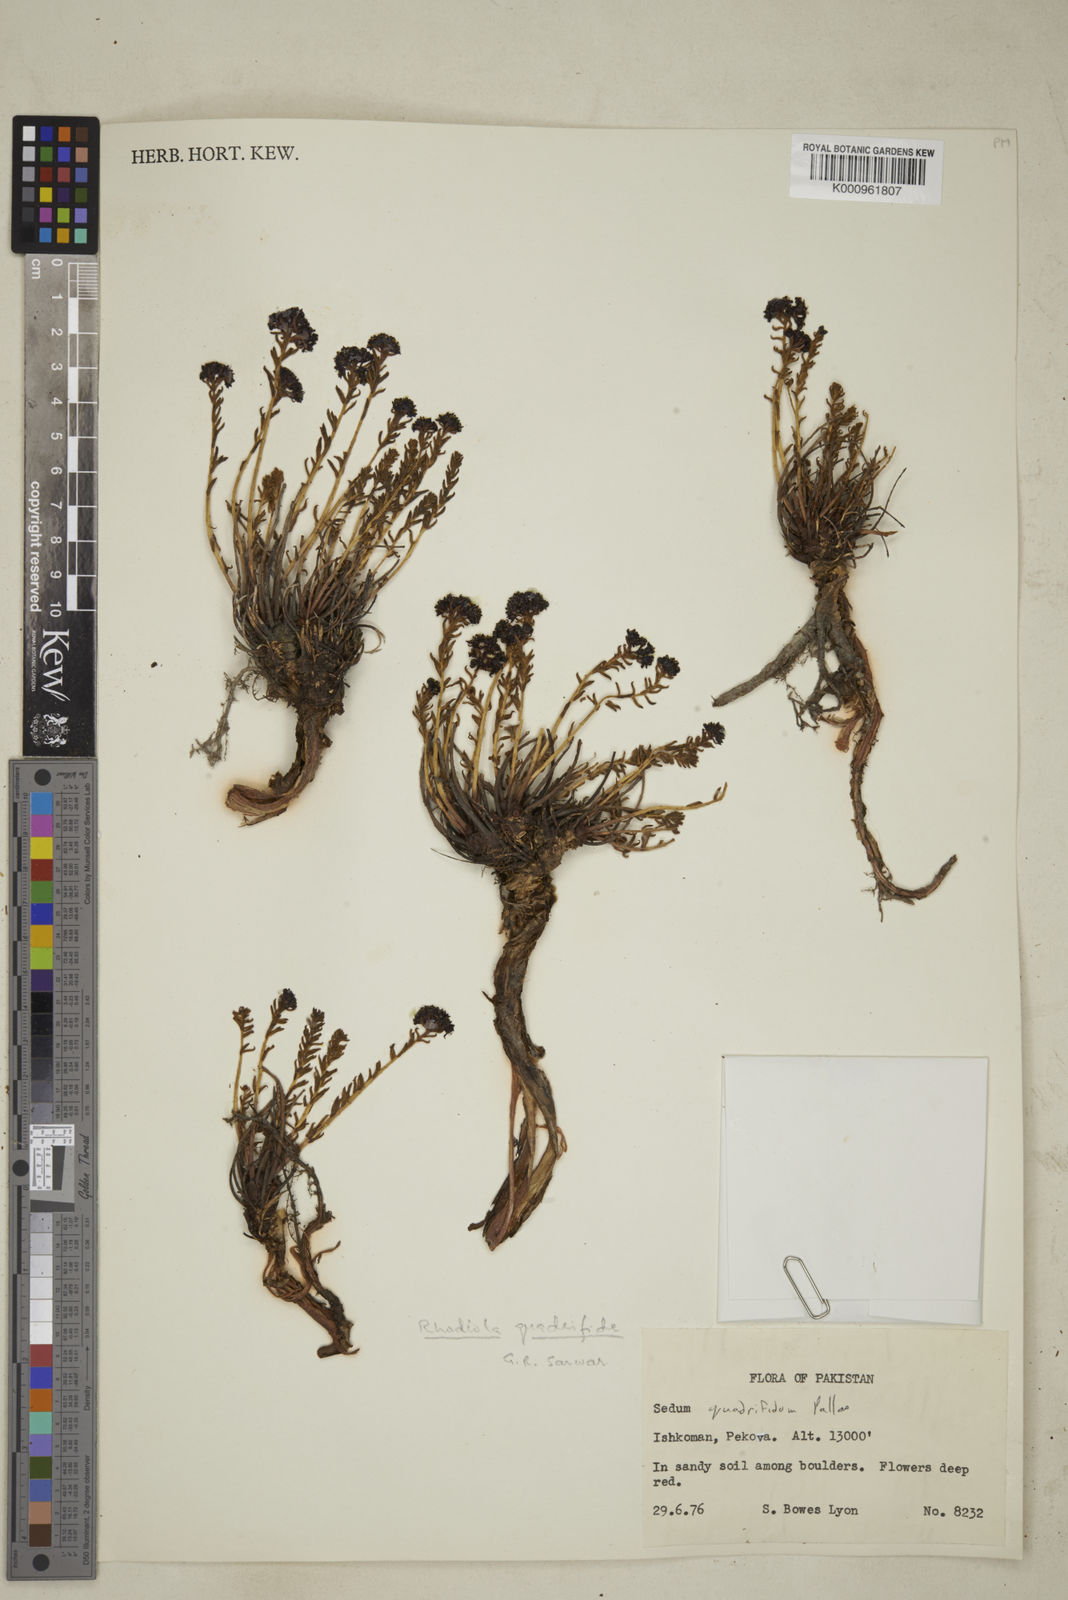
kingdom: Plantae
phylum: Tracheophyta
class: Magnoliopsida
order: Saxifragales
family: Crassulaceae
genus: Aeonium
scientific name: Aeonium
